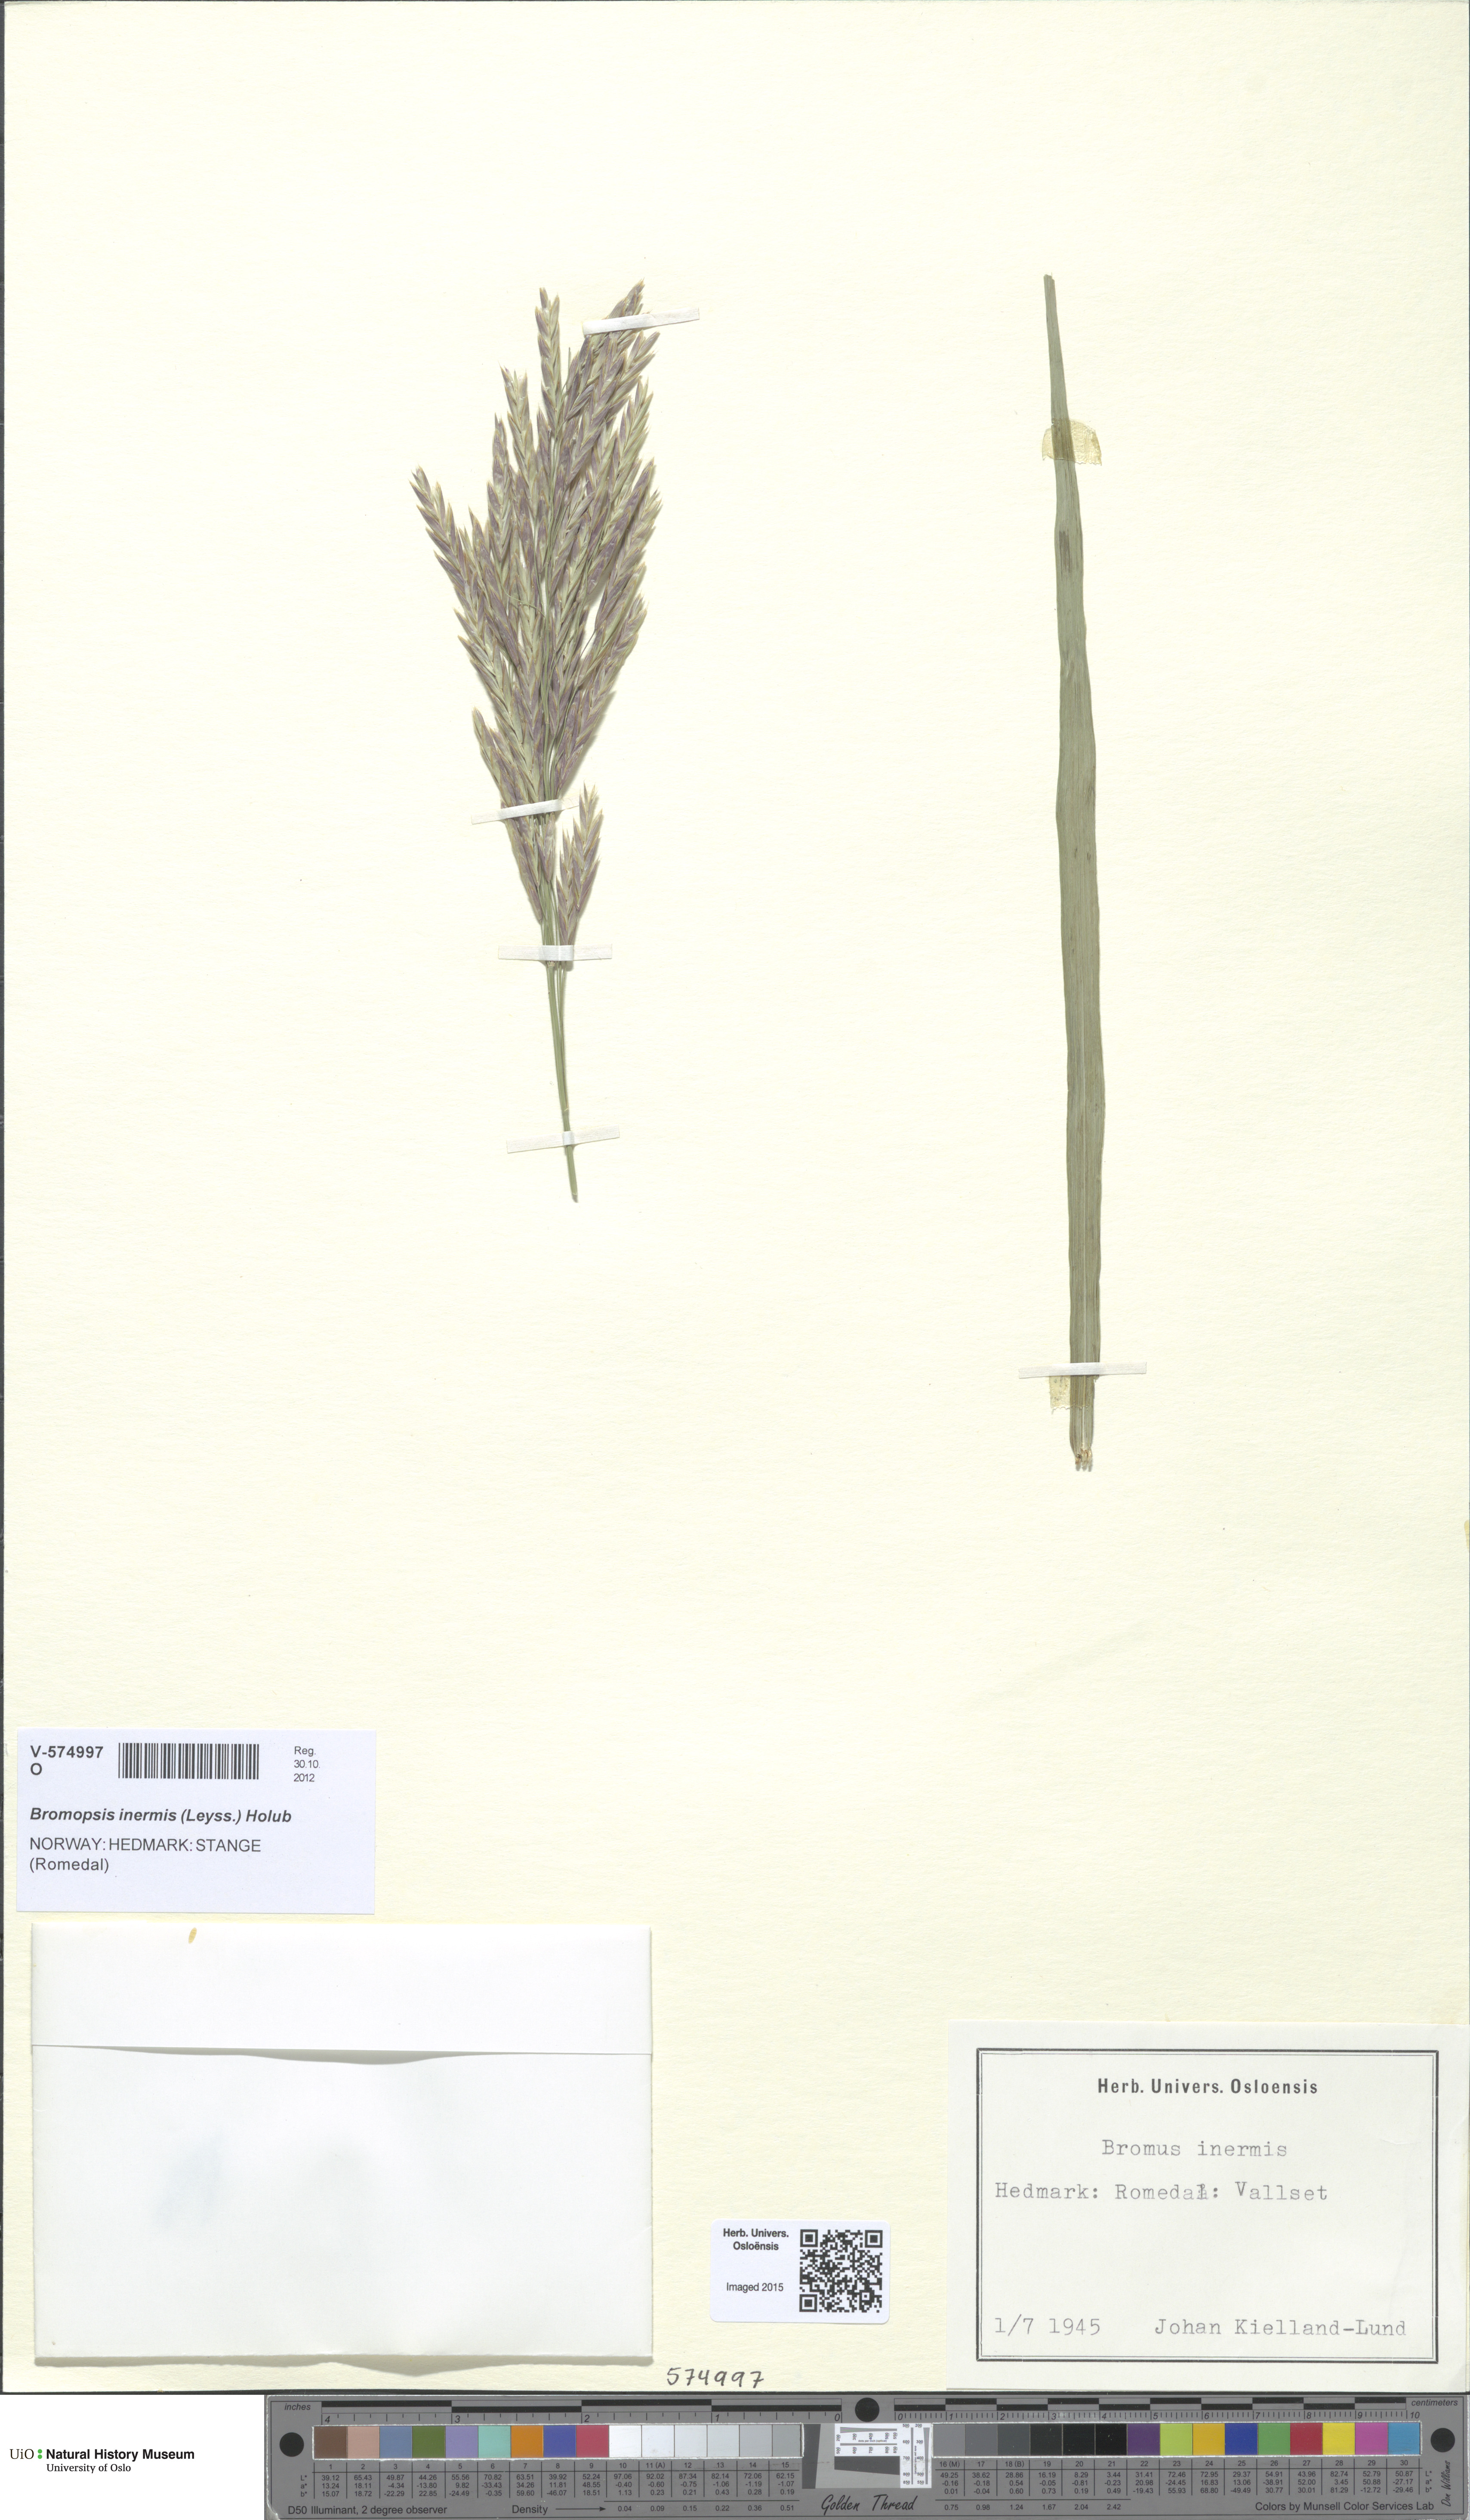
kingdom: Plantae
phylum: Tracheophyta
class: Liliopsida
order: Poales
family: Poaceae
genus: Bromus
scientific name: Bromus inermis
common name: Smooth brome
